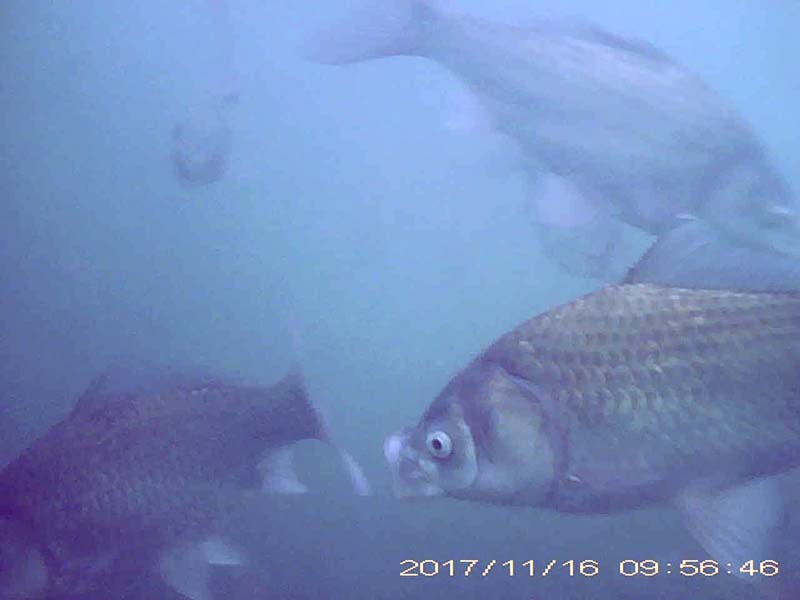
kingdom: Animalia
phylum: Chordata
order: Cypriniformes
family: Cyprinidae
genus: Carassius
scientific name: Carassius cuvieri
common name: ゲンゴロウブナ
